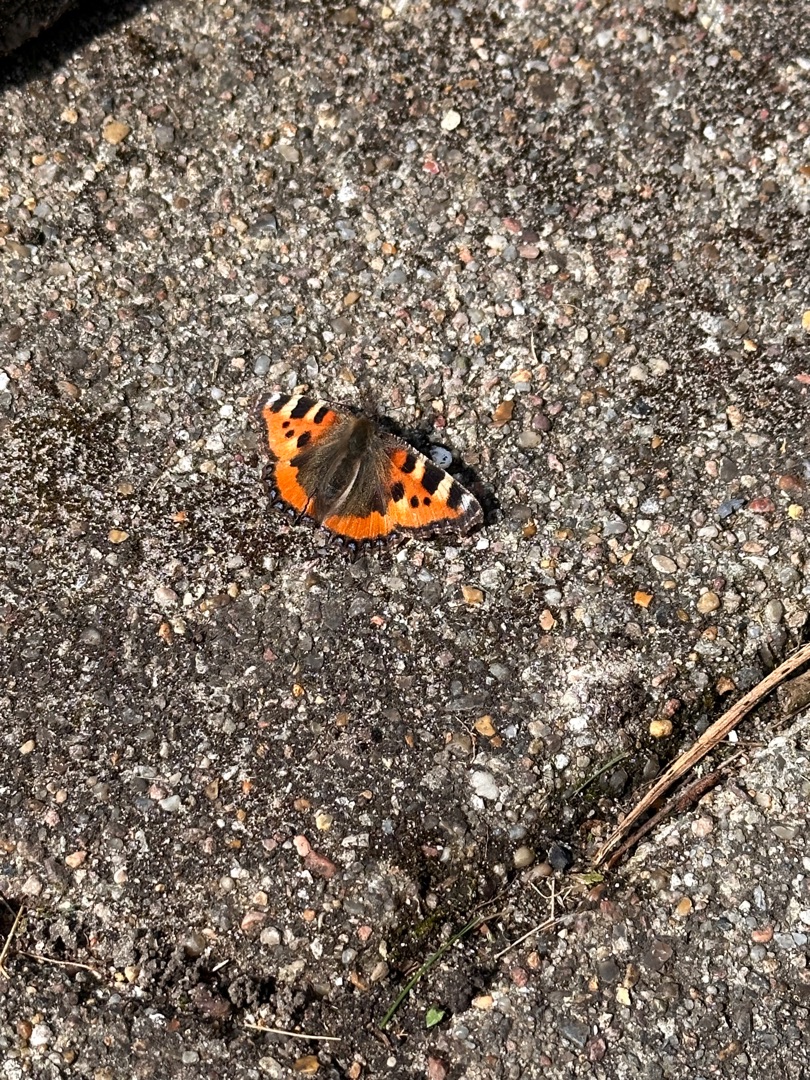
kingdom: Animalia
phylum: Arthropoda
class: Insecta
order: Lepidoptera
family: Nymphalidae
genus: Aglais
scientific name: Aglais urticae
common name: Nældens takvinge
